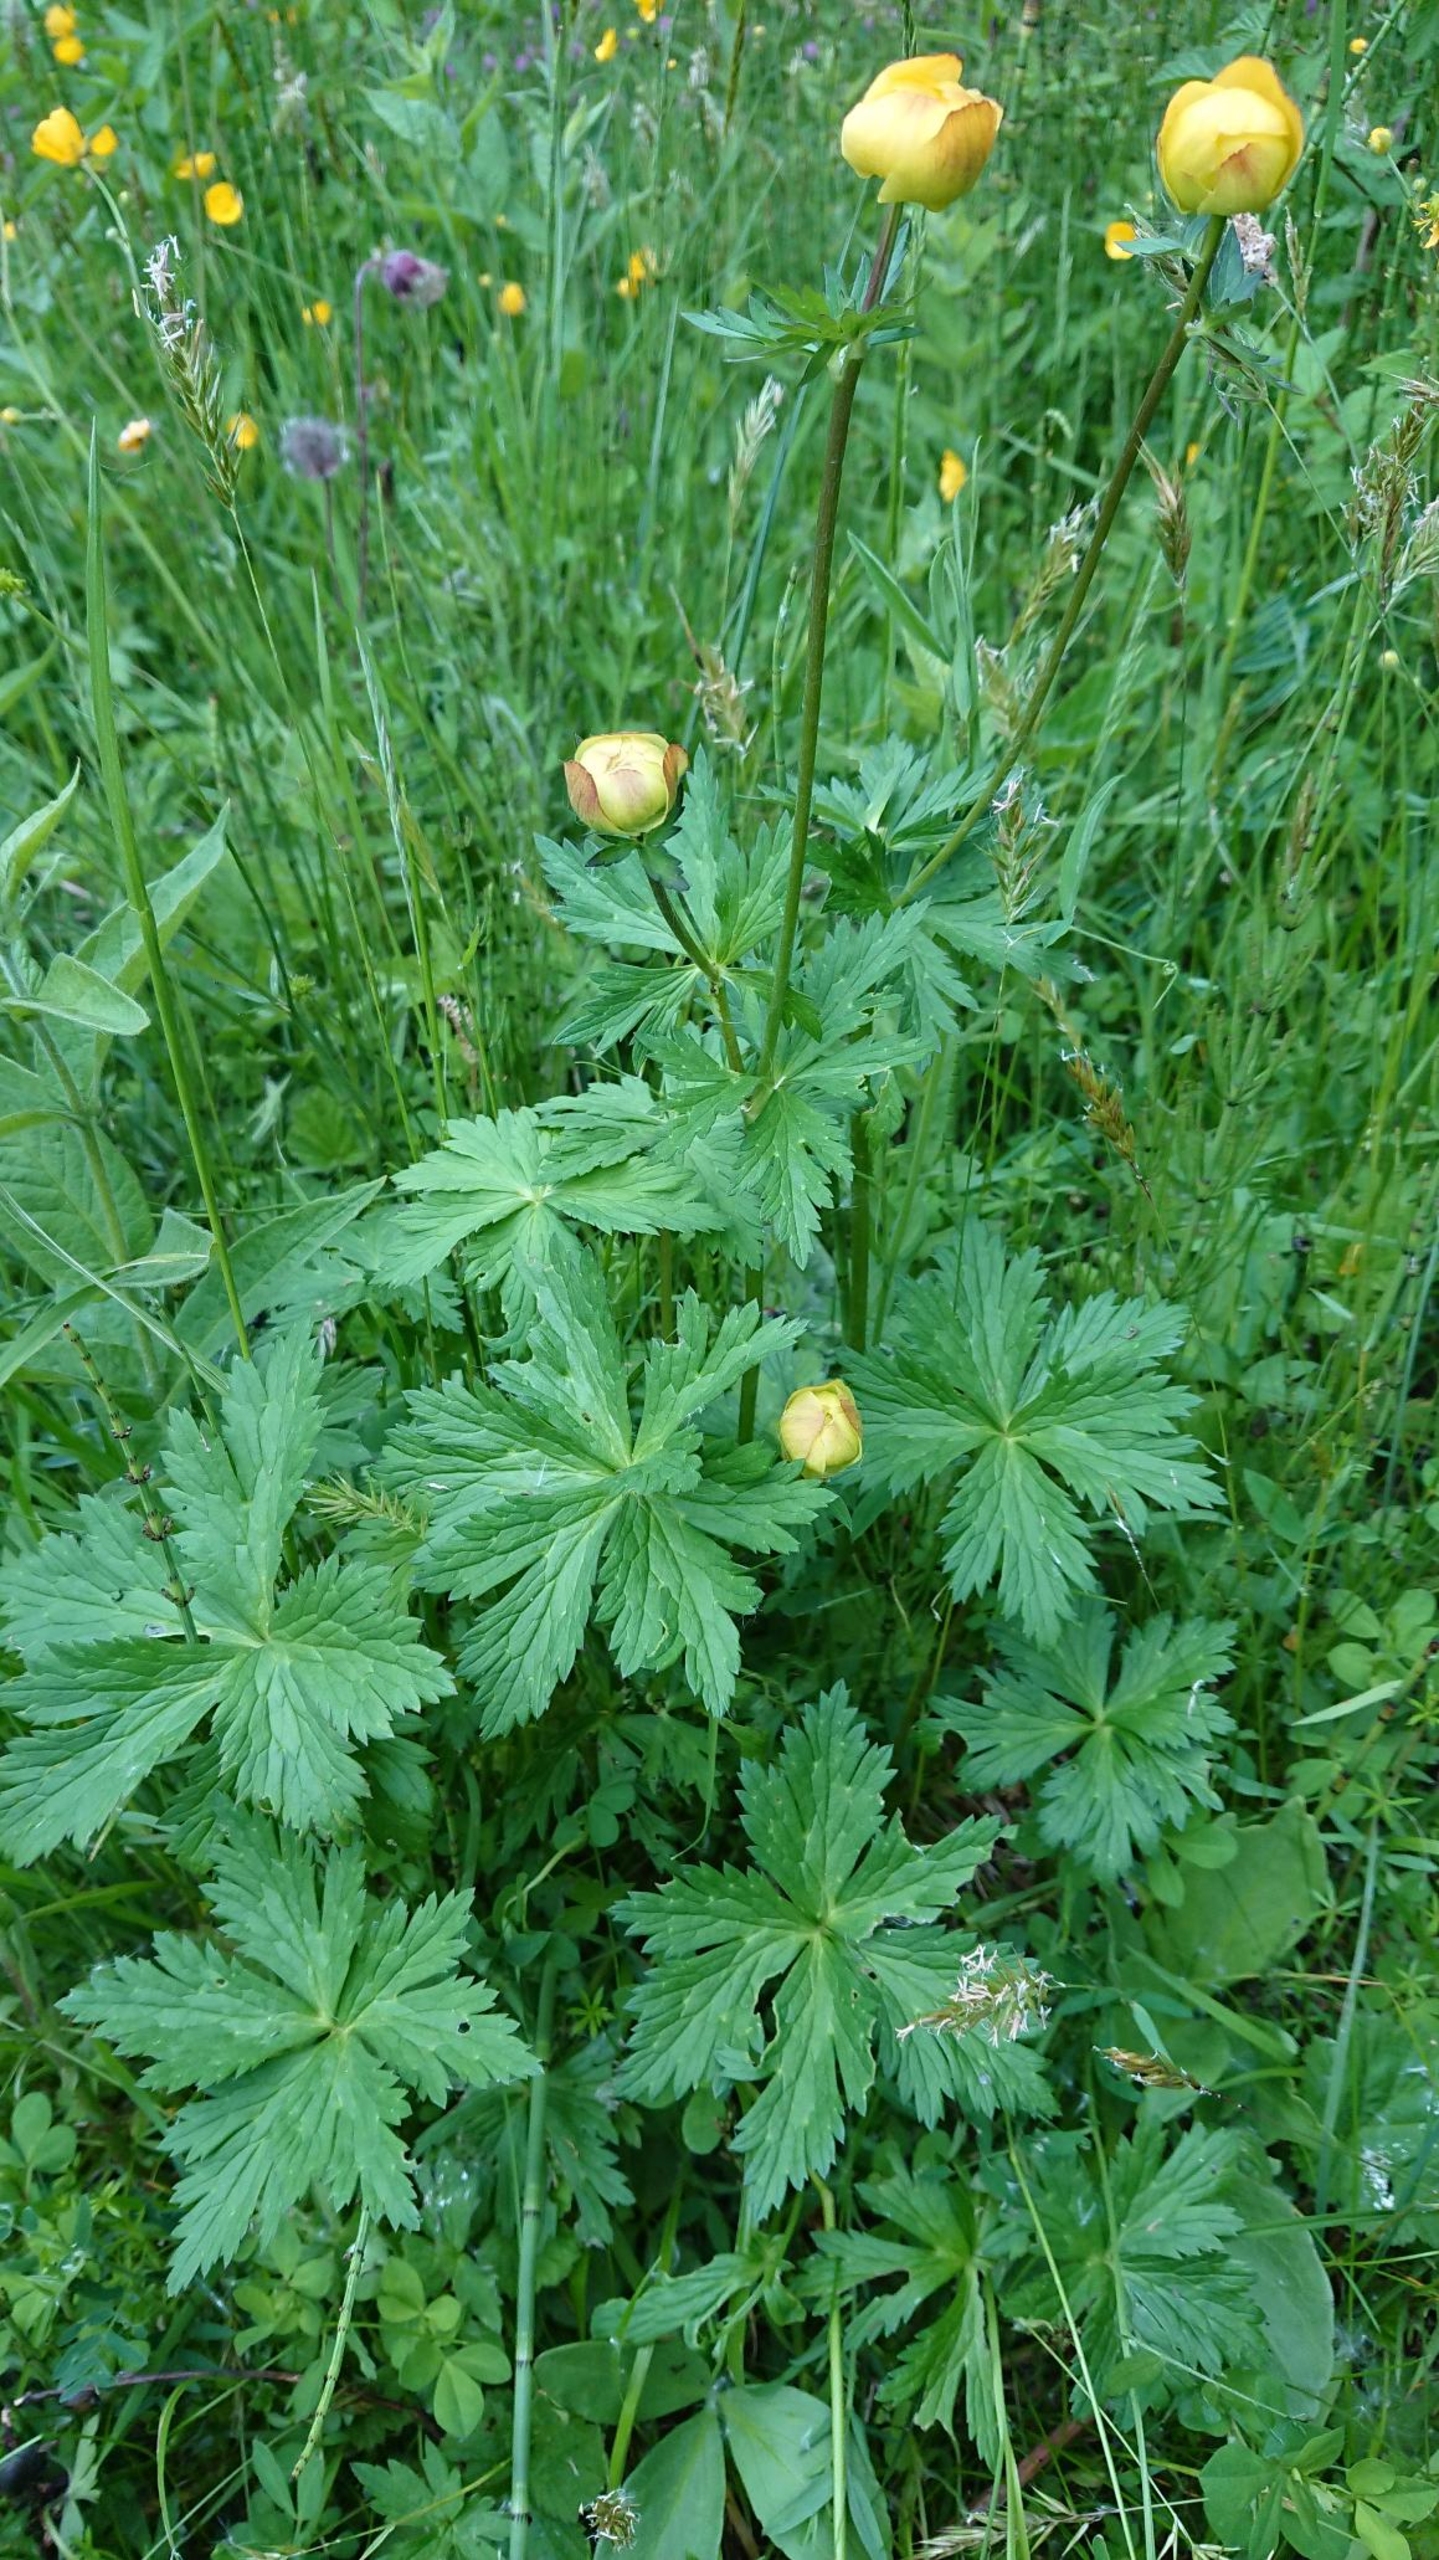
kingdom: Plantae
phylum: Tracheophyta
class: Magnoliopsida
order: Ranunculales
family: Ranunculaceae
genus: Trollius
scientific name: Trollius europaeus
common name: Engblomme
